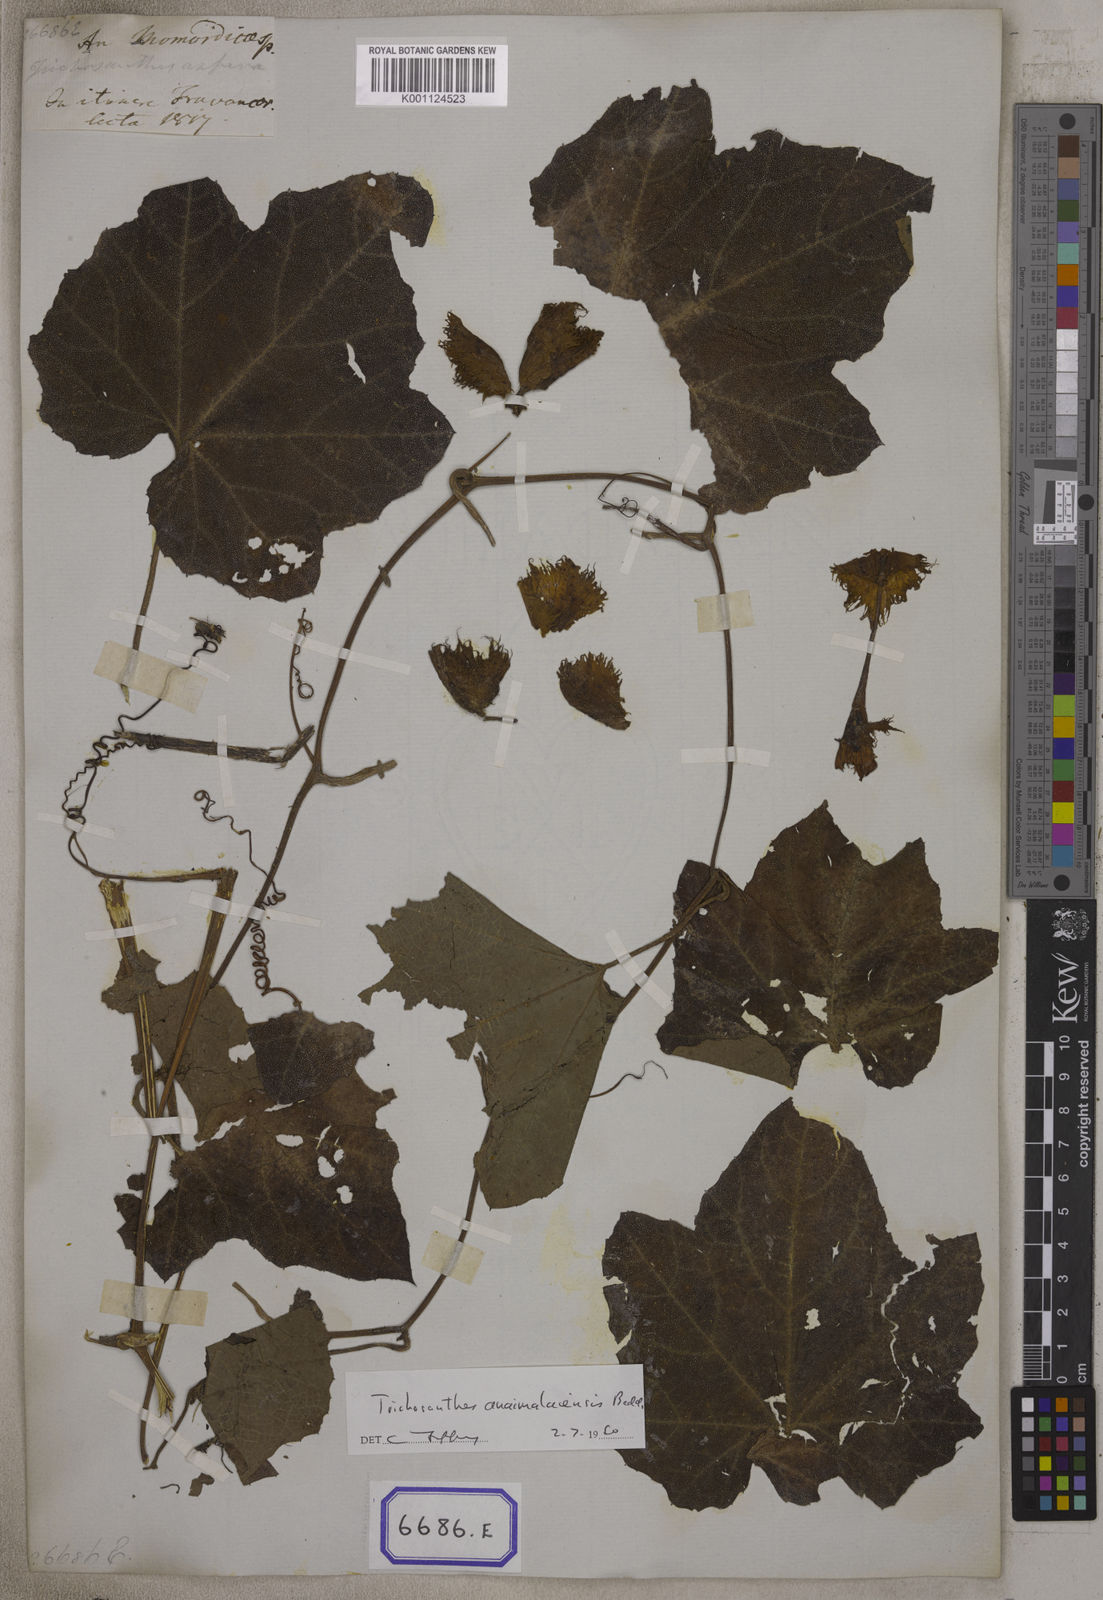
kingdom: Plantae
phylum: Tracheophyta
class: Magnoliopsida
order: Cucurbitales
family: Cucurbitaceae
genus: Trichosanthes
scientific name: Trichosanthes
